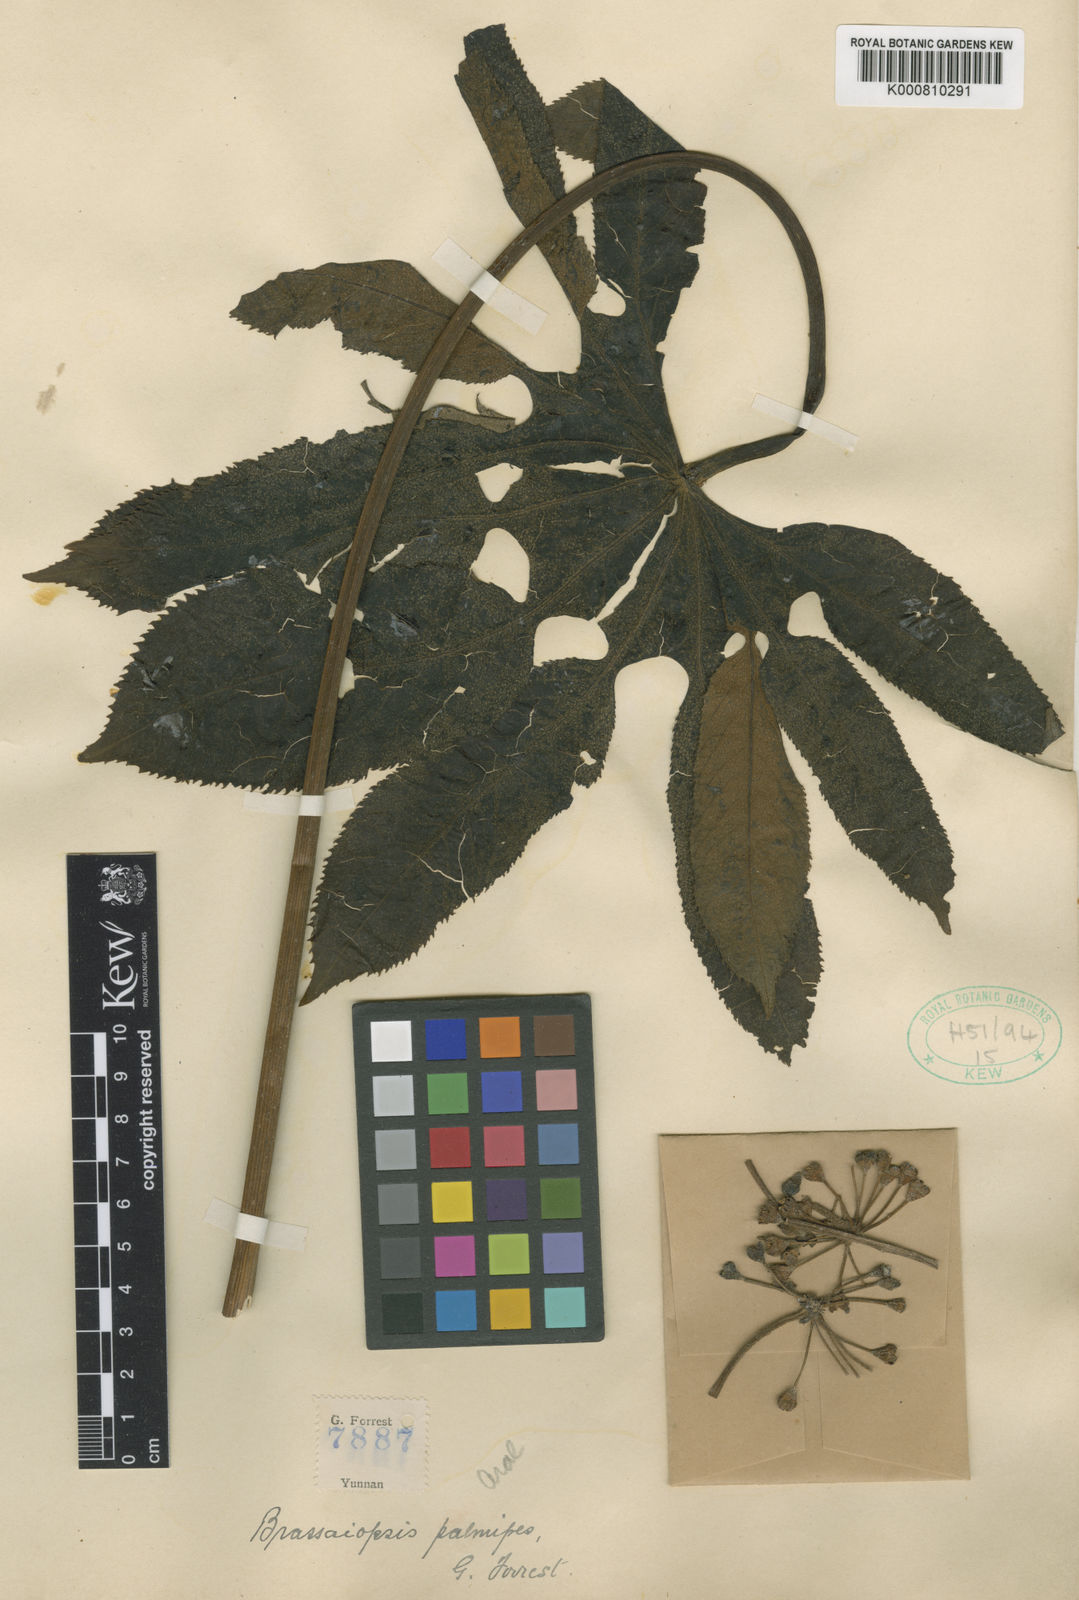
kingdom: Plantae
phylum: Tracheophyta
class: Magnoliopsida
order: Apiales
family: Araliaceae
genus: Brassaiopsis
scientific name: Brassaiopsis ciliata
